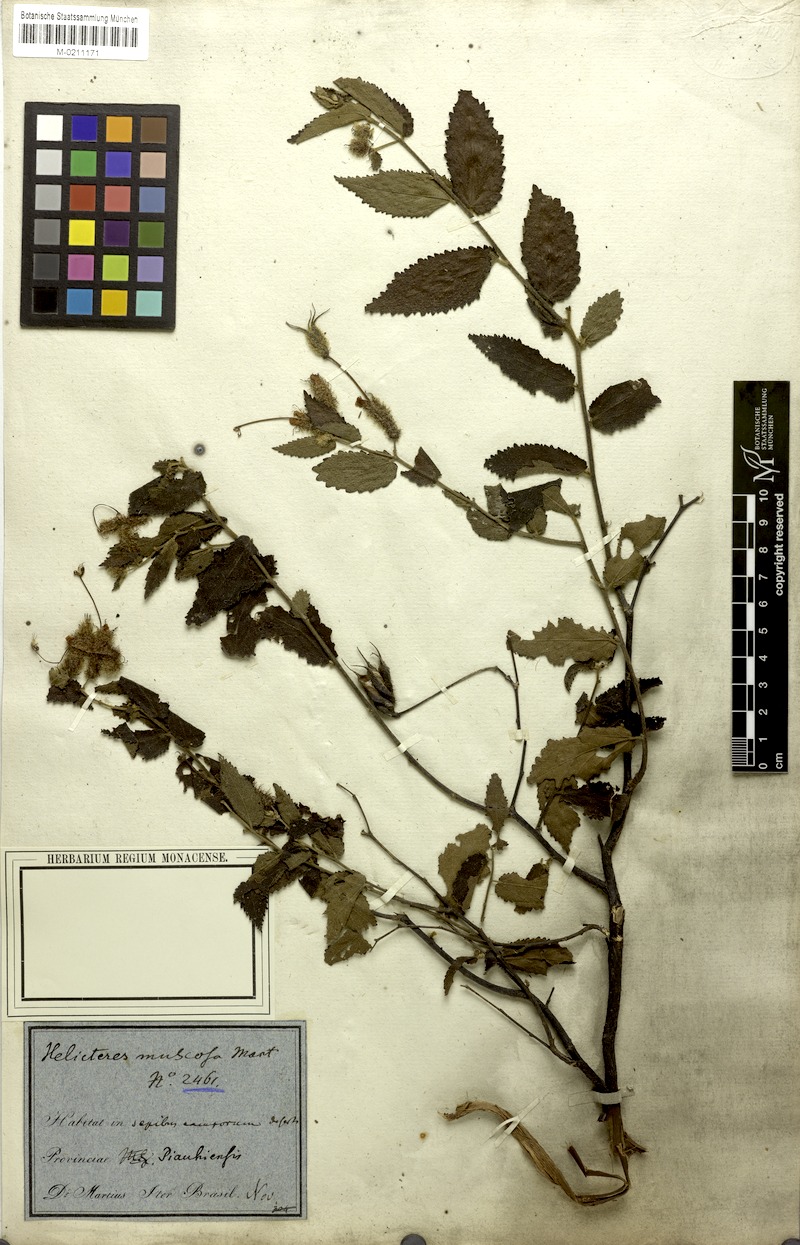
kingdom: Plantae
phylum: Tracheophyta
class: Magnoliopsida
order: Malvales
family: Malvaceae
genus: Helicteres
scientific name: Helicteres muscosa
